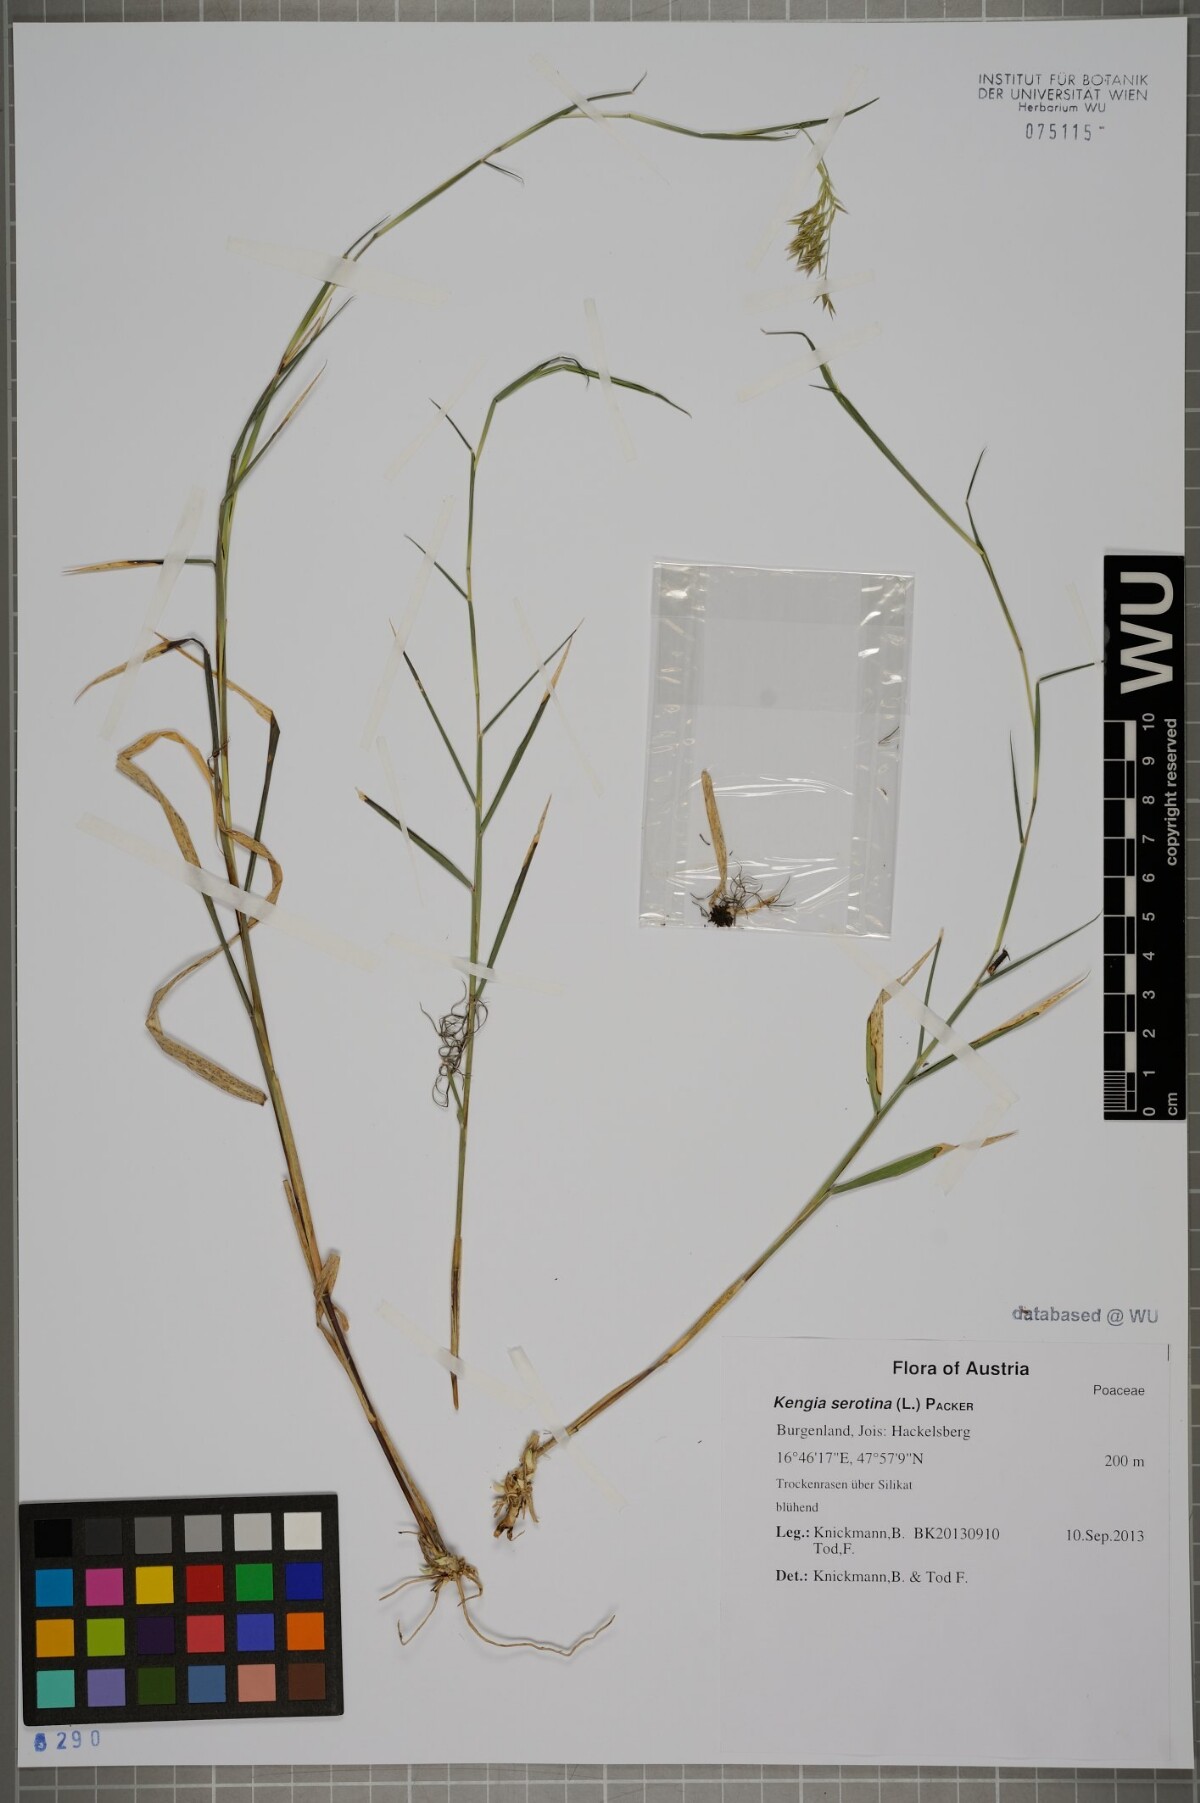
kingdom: Plantae
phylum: Tracheophyta
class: Liliopsida
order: Poales
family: Poaceae
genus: Cleistogenes
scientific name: Cleistogenes serotina
